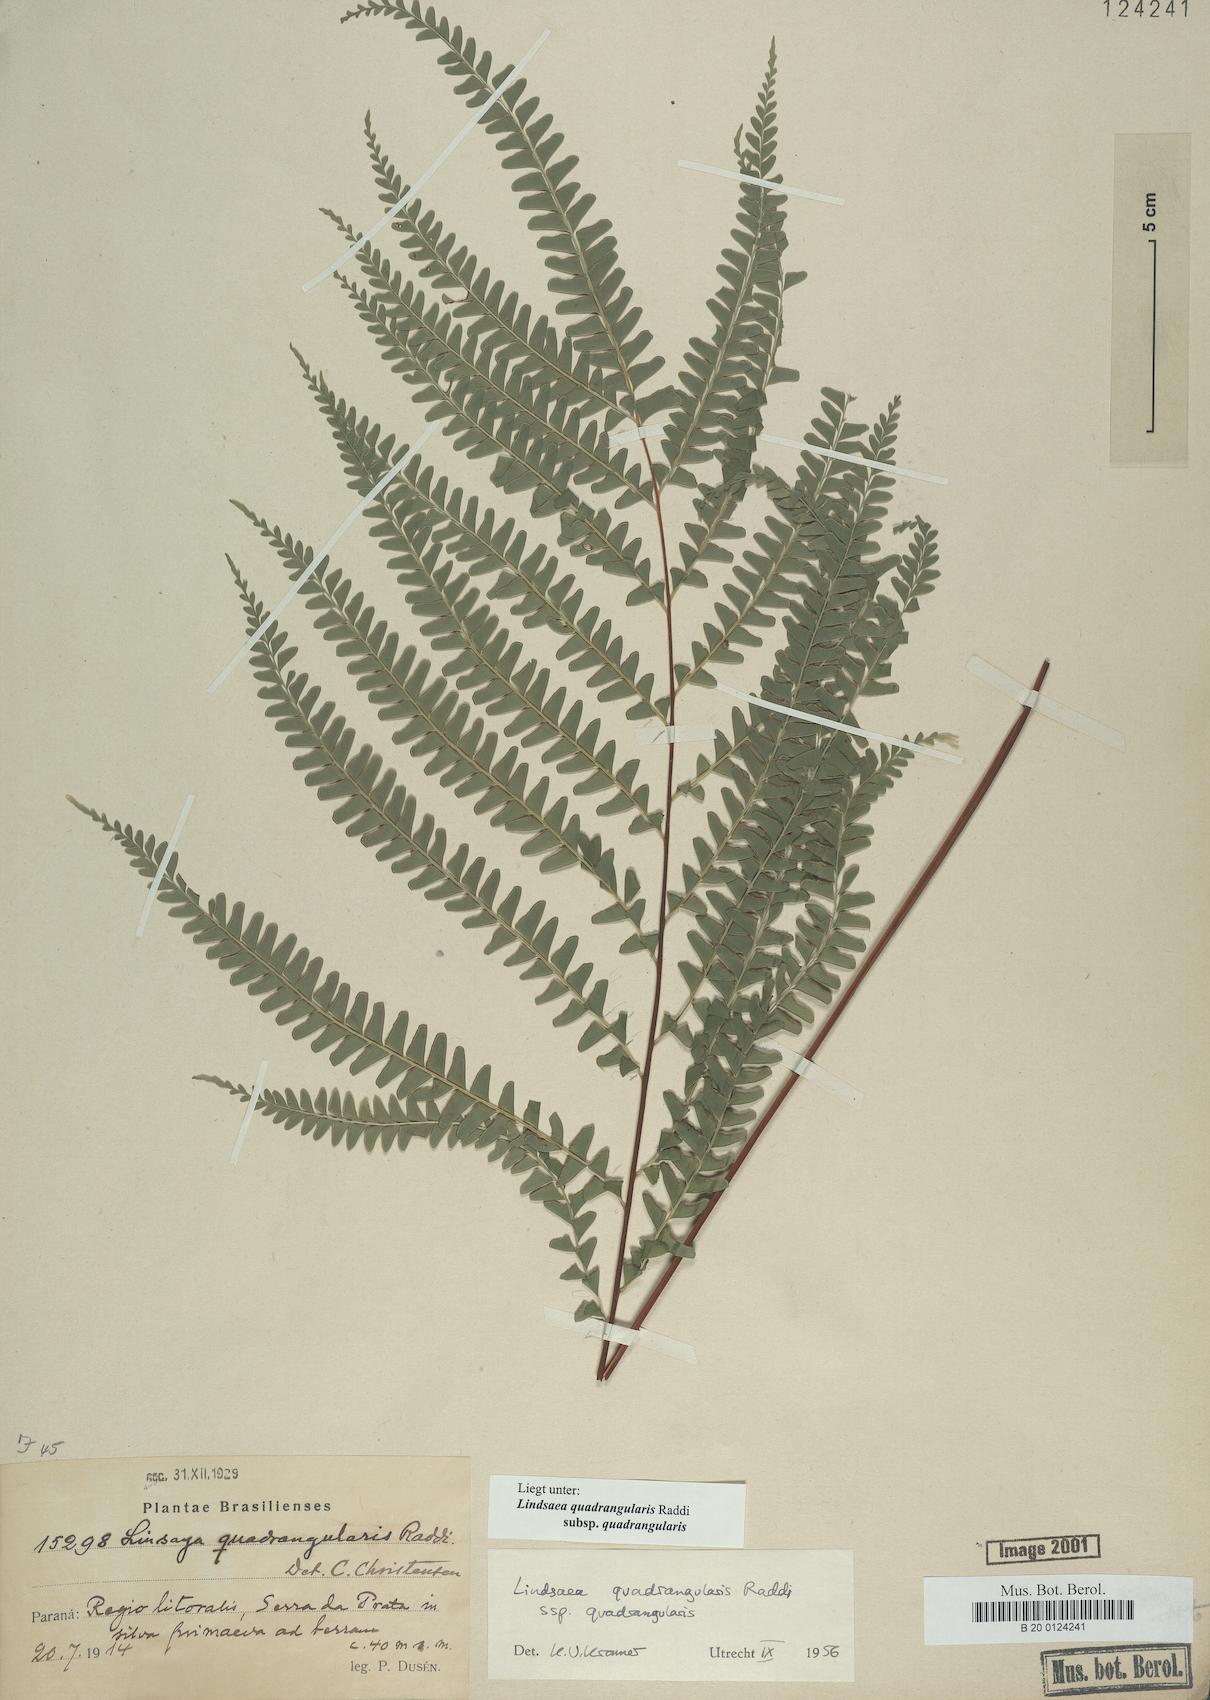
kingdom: Plantae
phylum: Tracheophyta
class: Polypodiopsida
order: Polypodiales
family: Lindsaeaceae
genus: Lindsaea
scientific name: Lindsaea quadrangularis
